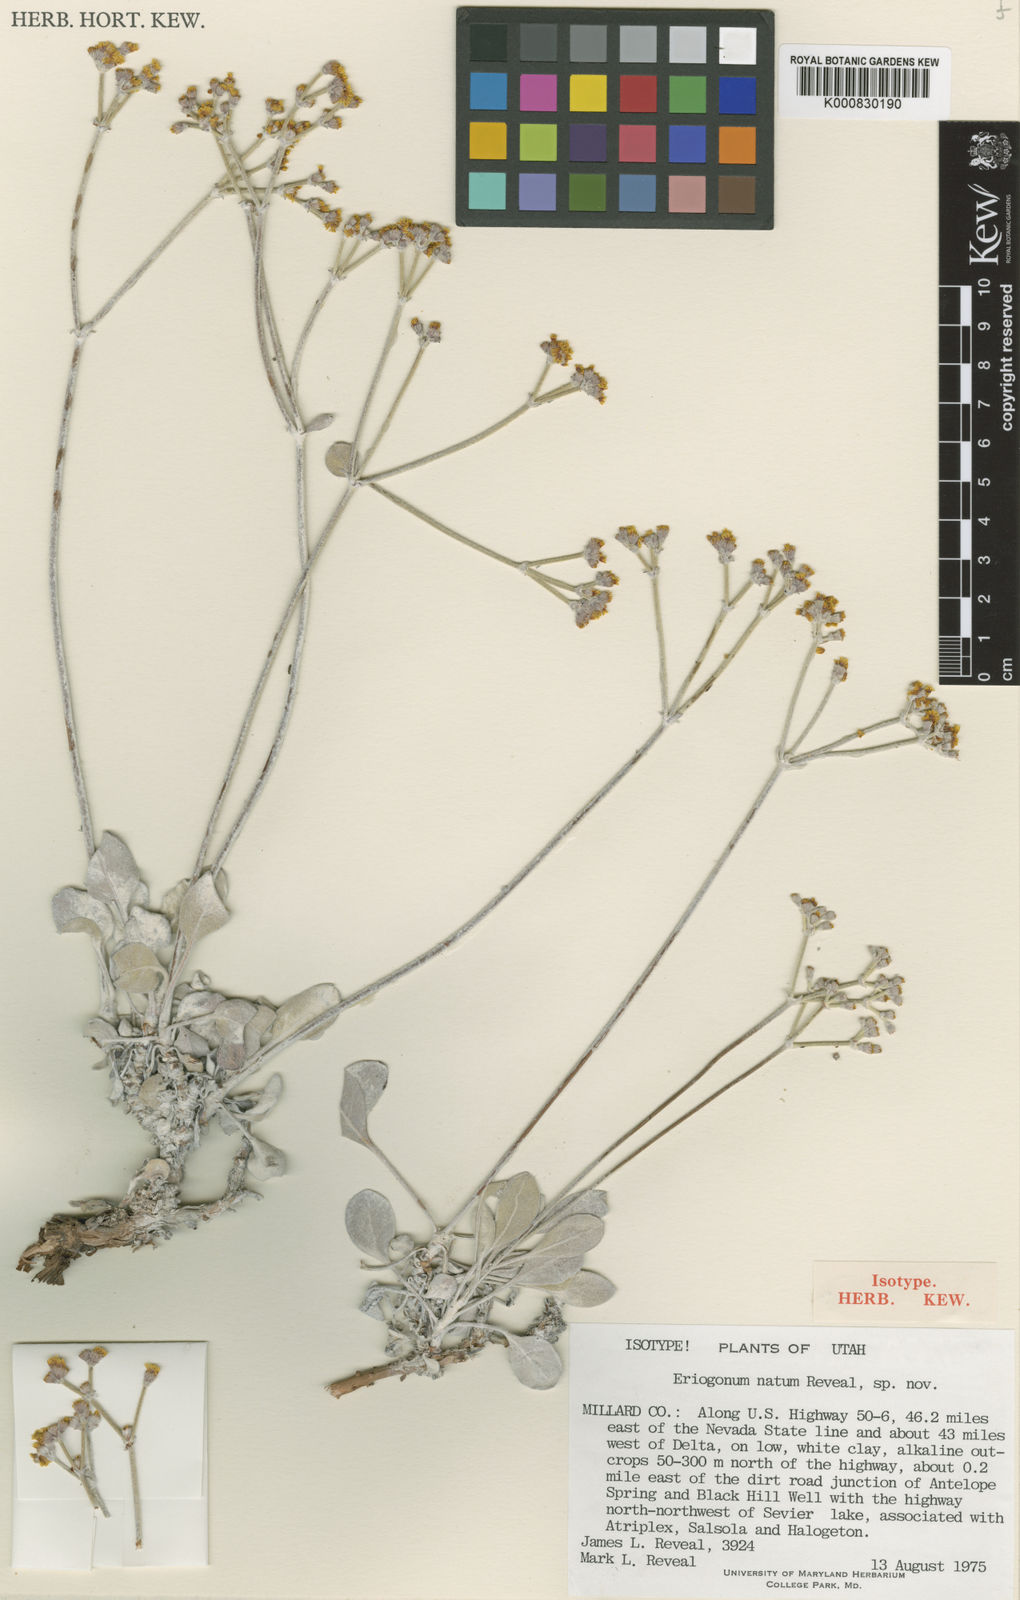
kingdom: Plantae
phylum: Tracheophyta
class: Magnoliopsida
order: Caryophyllales
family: Polygonaceae
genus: Eriogonum
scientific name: Eriogonum natum
